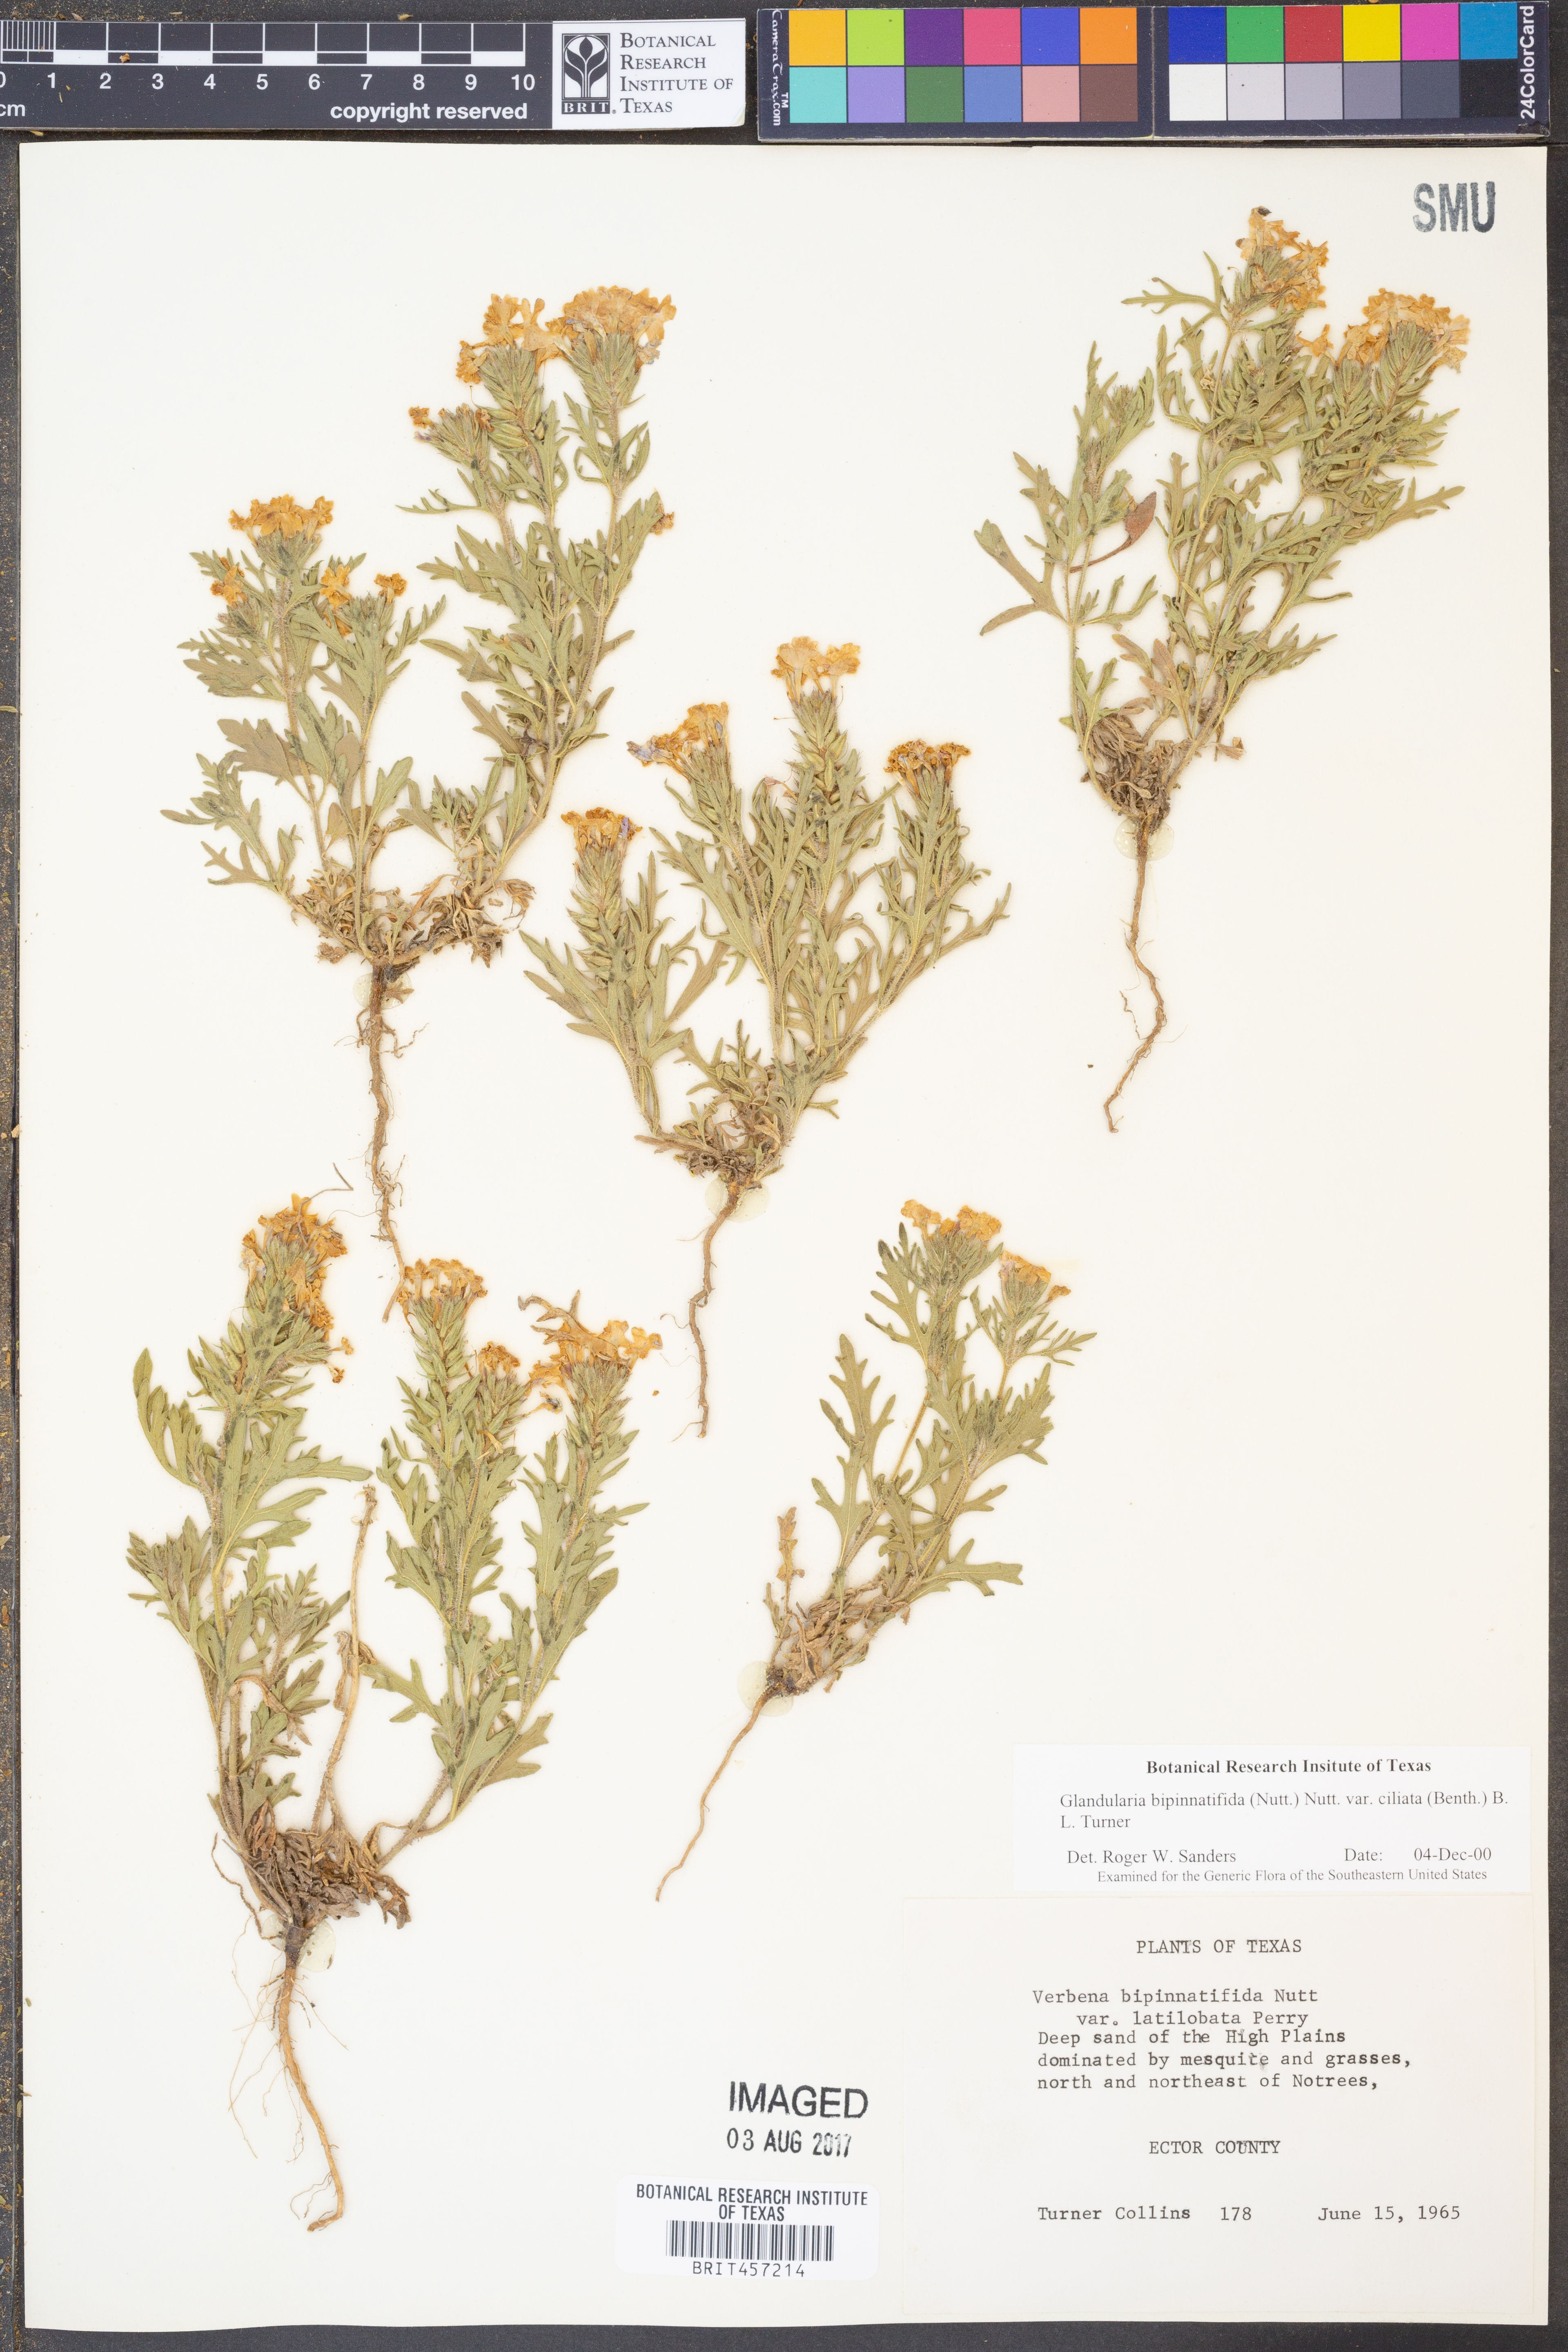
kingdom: Plantae
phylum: Tracheophyta
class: Magnoliopsida
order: Lamiales
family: Verbenaceae
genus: Verbena
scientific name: Verbena bipinnatifida
